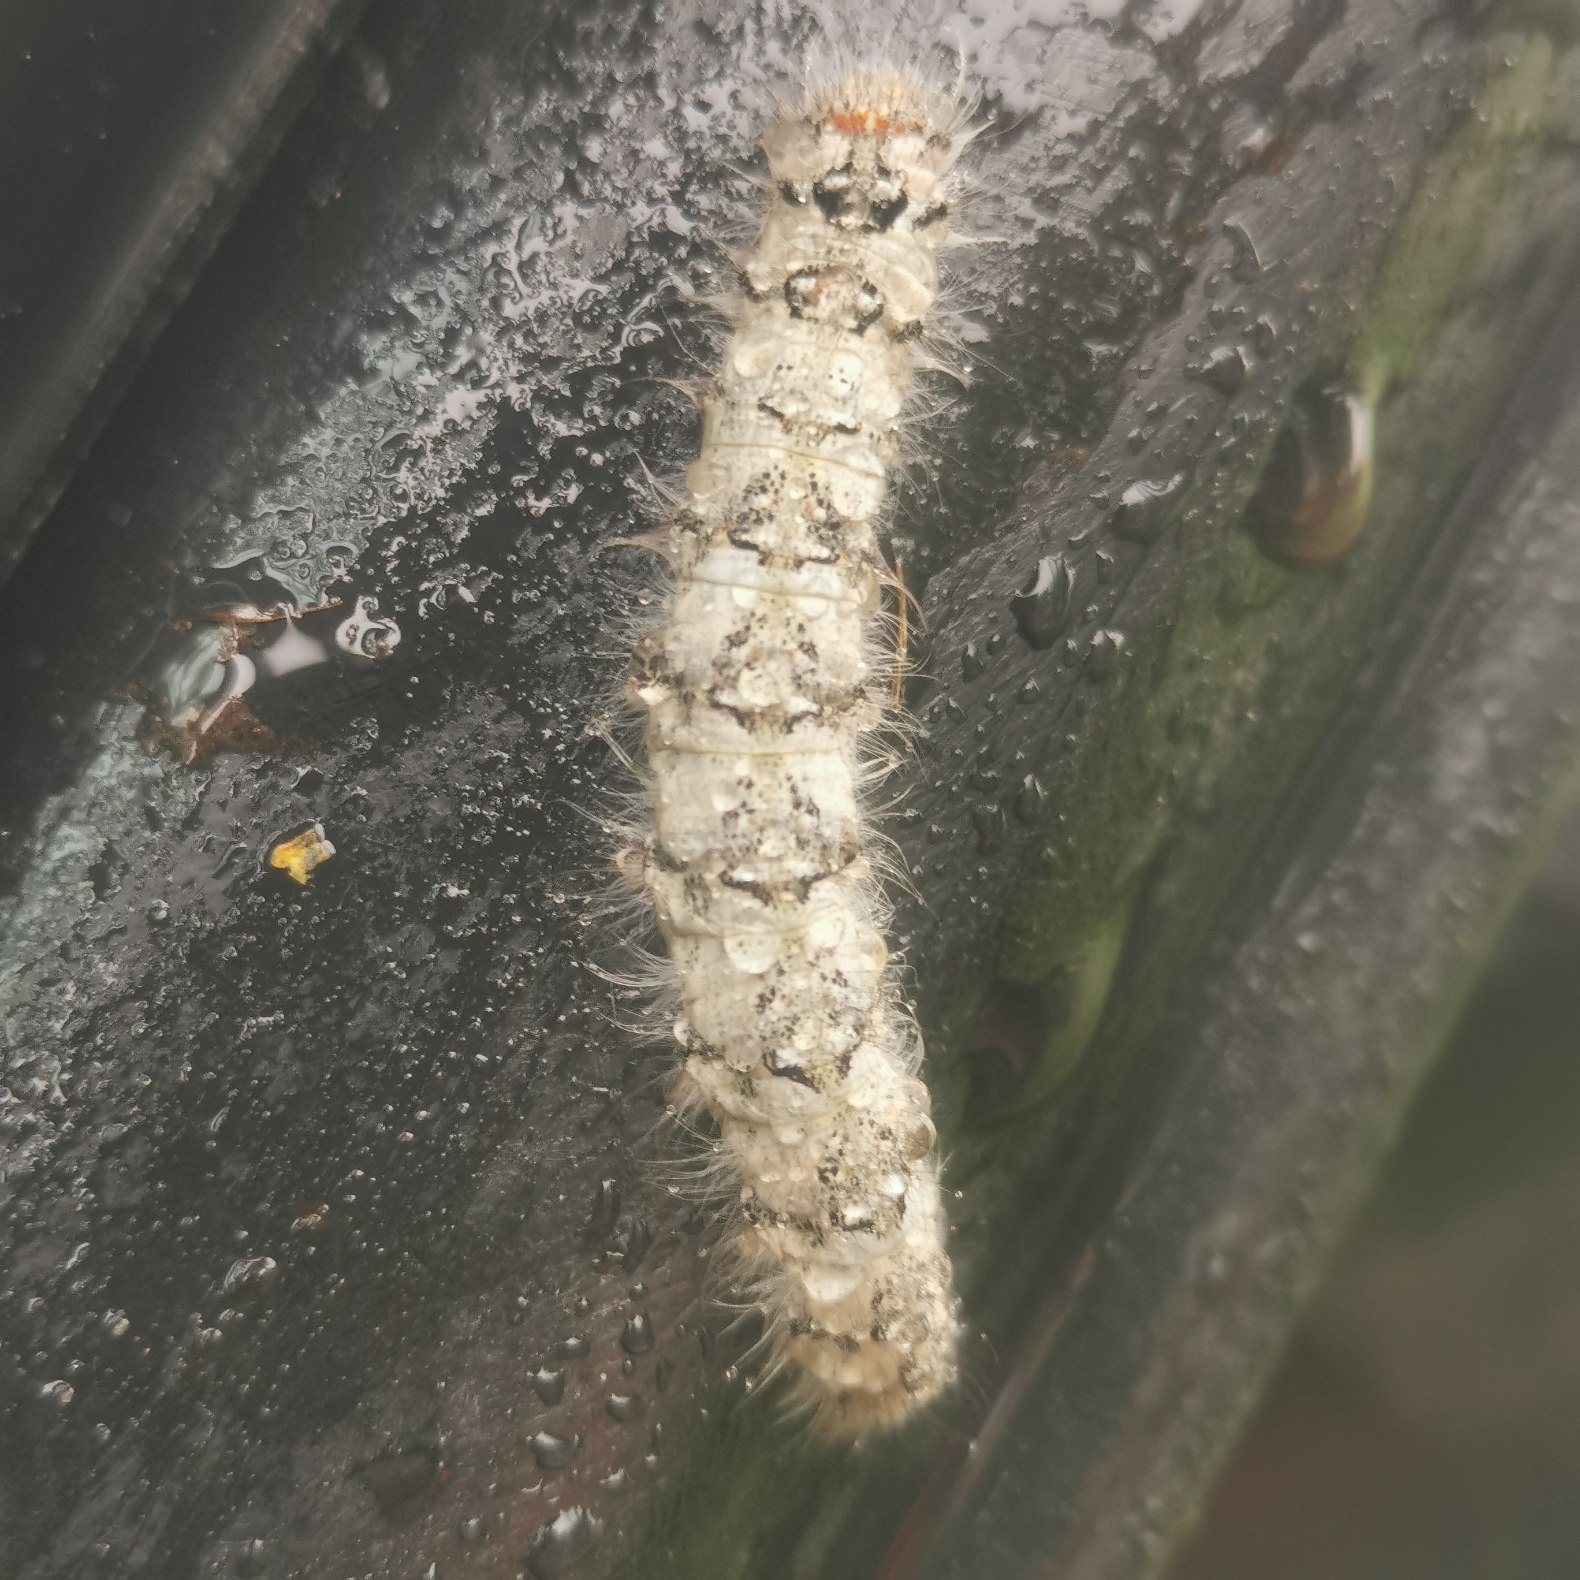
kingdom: Animalia
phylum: Arthropoda
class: Insecta
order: Lepidoptera
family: Lasiocampidae
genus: Poecilocampa
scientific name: Poecilocampa populi
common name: Poppelspinder
